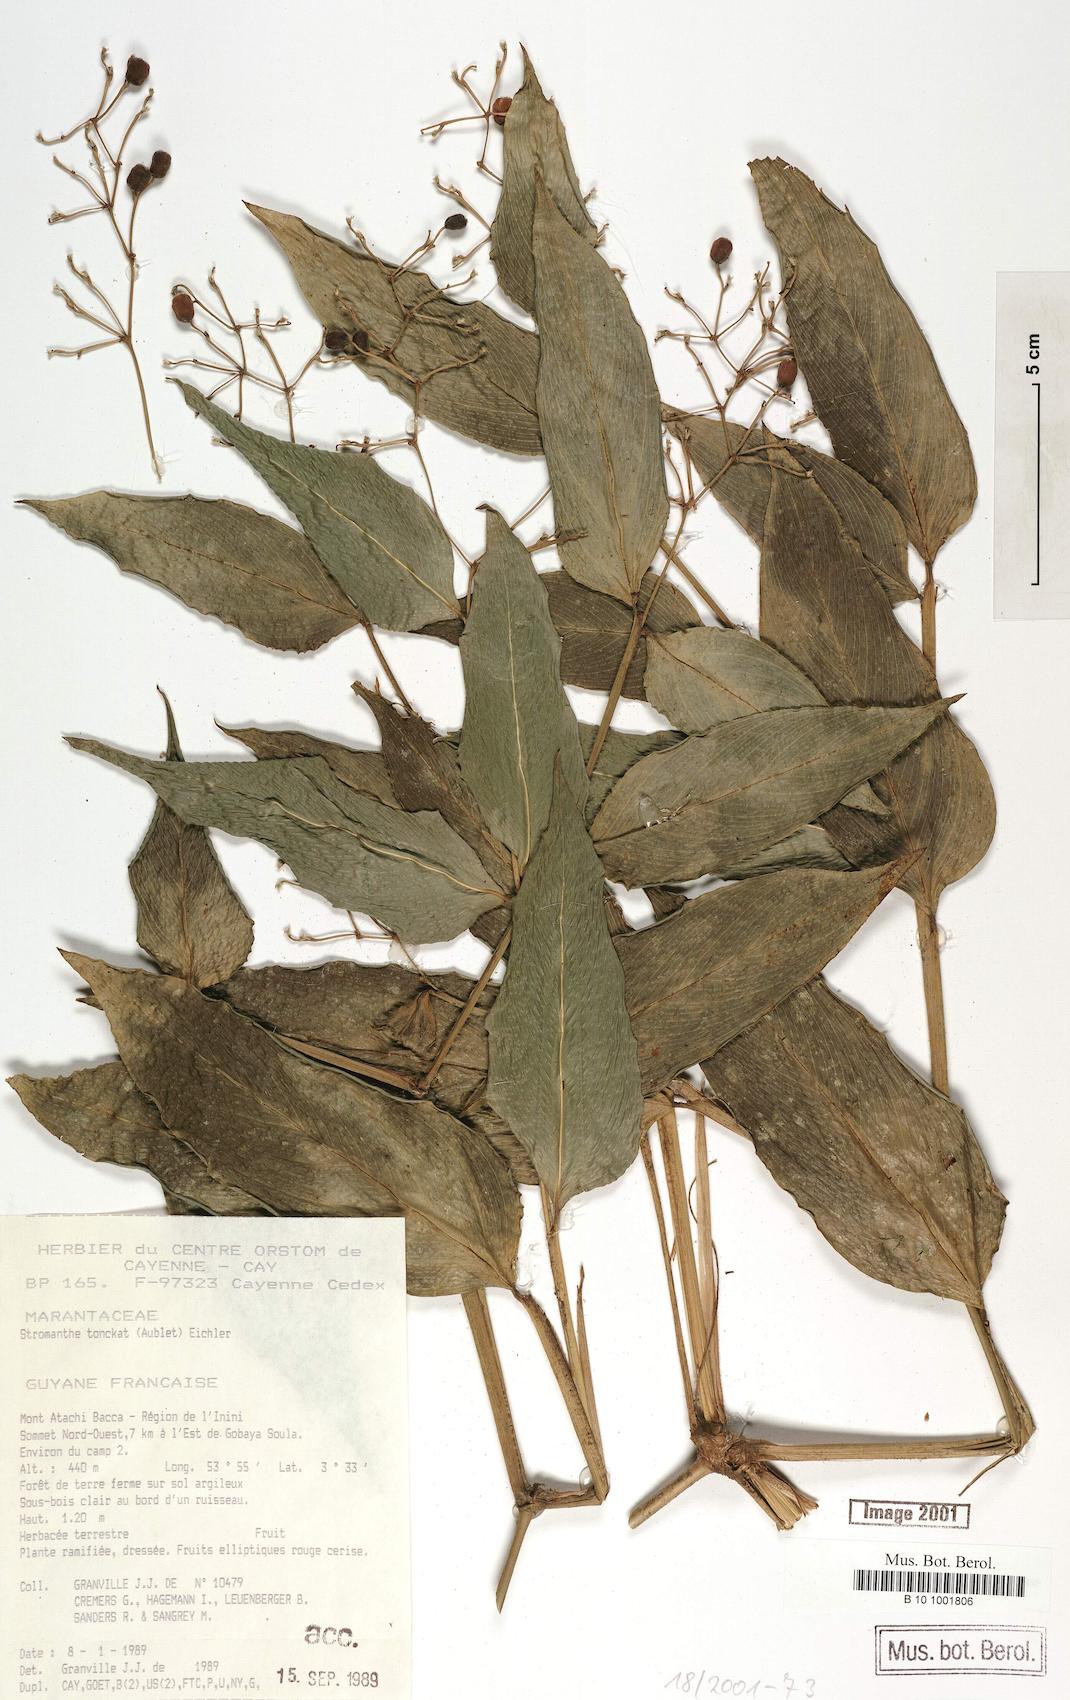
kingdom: Plantae
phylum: Tracheophyta
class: Liliopsida
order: Zingiberales
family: Marantaceae
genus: Stromanthe
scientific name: Stromanthe tonckat
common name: Stromanthe
